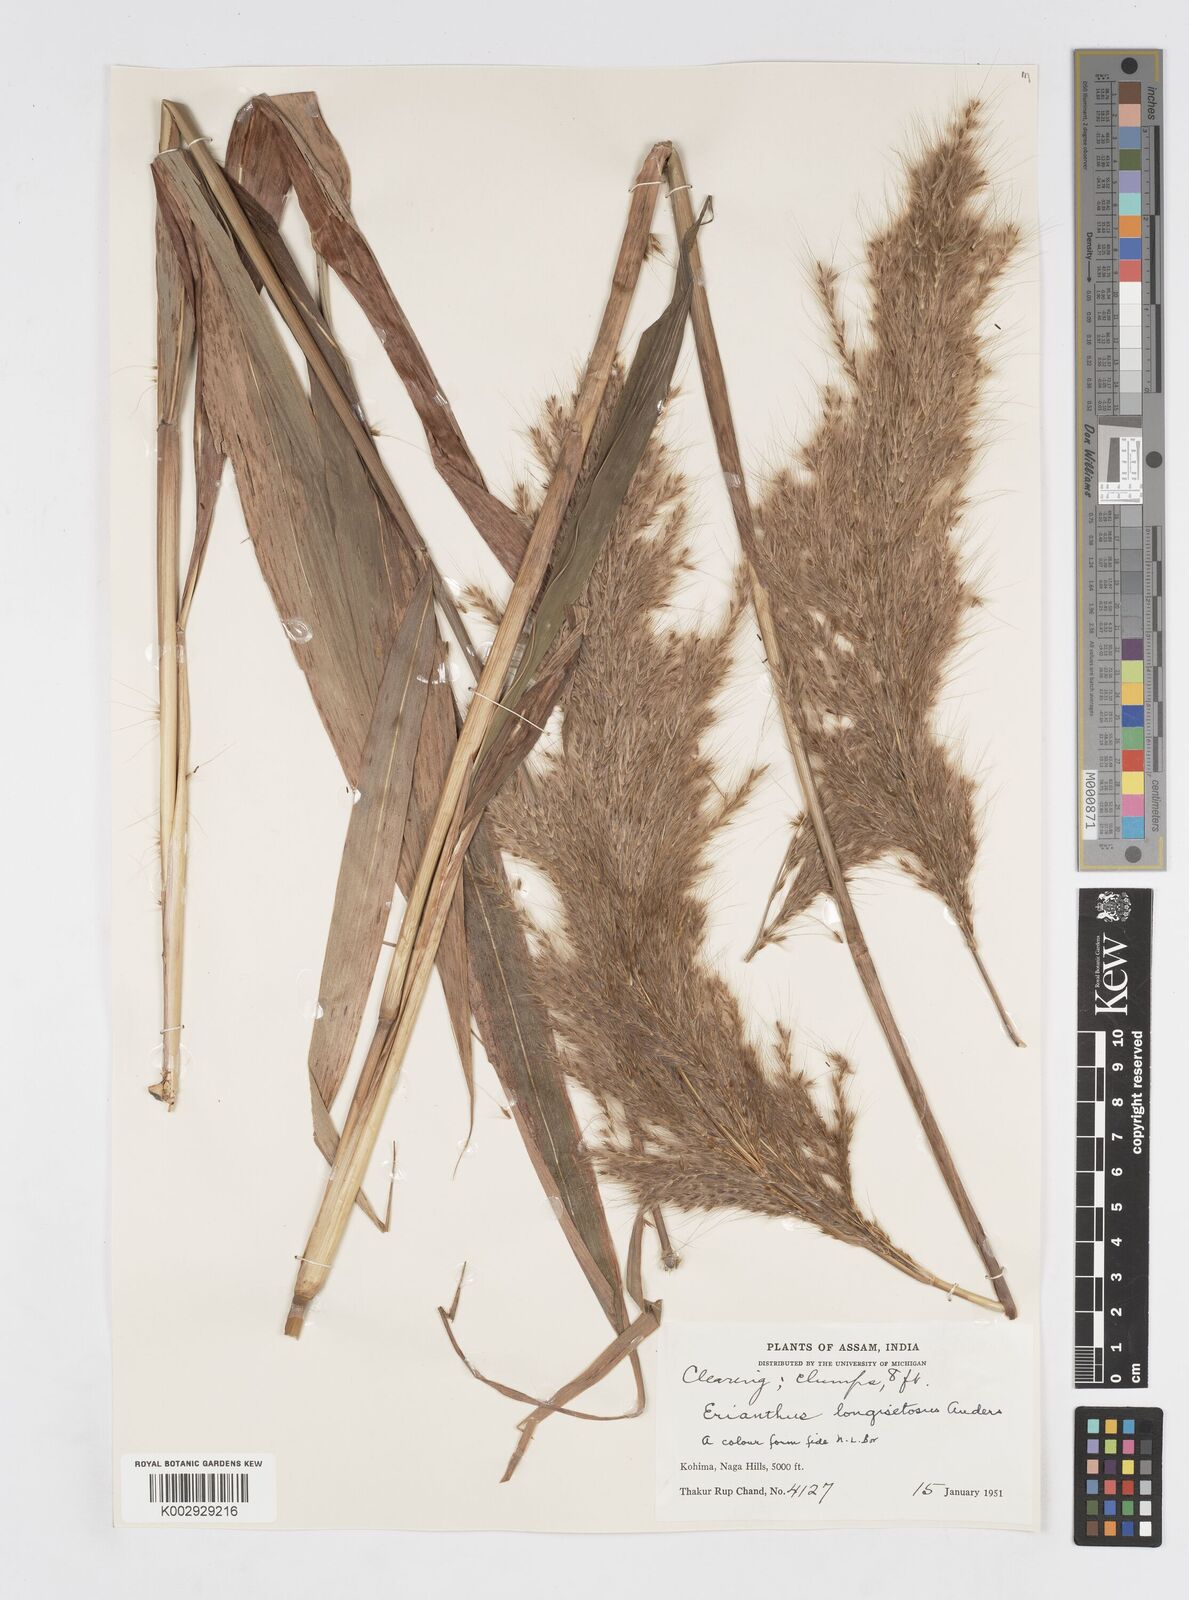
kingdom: Plantae
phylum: Tracheophyta
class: Liliopsida
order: Poales
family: Poaceae
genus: Melinis
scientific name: Melinis longiseta
